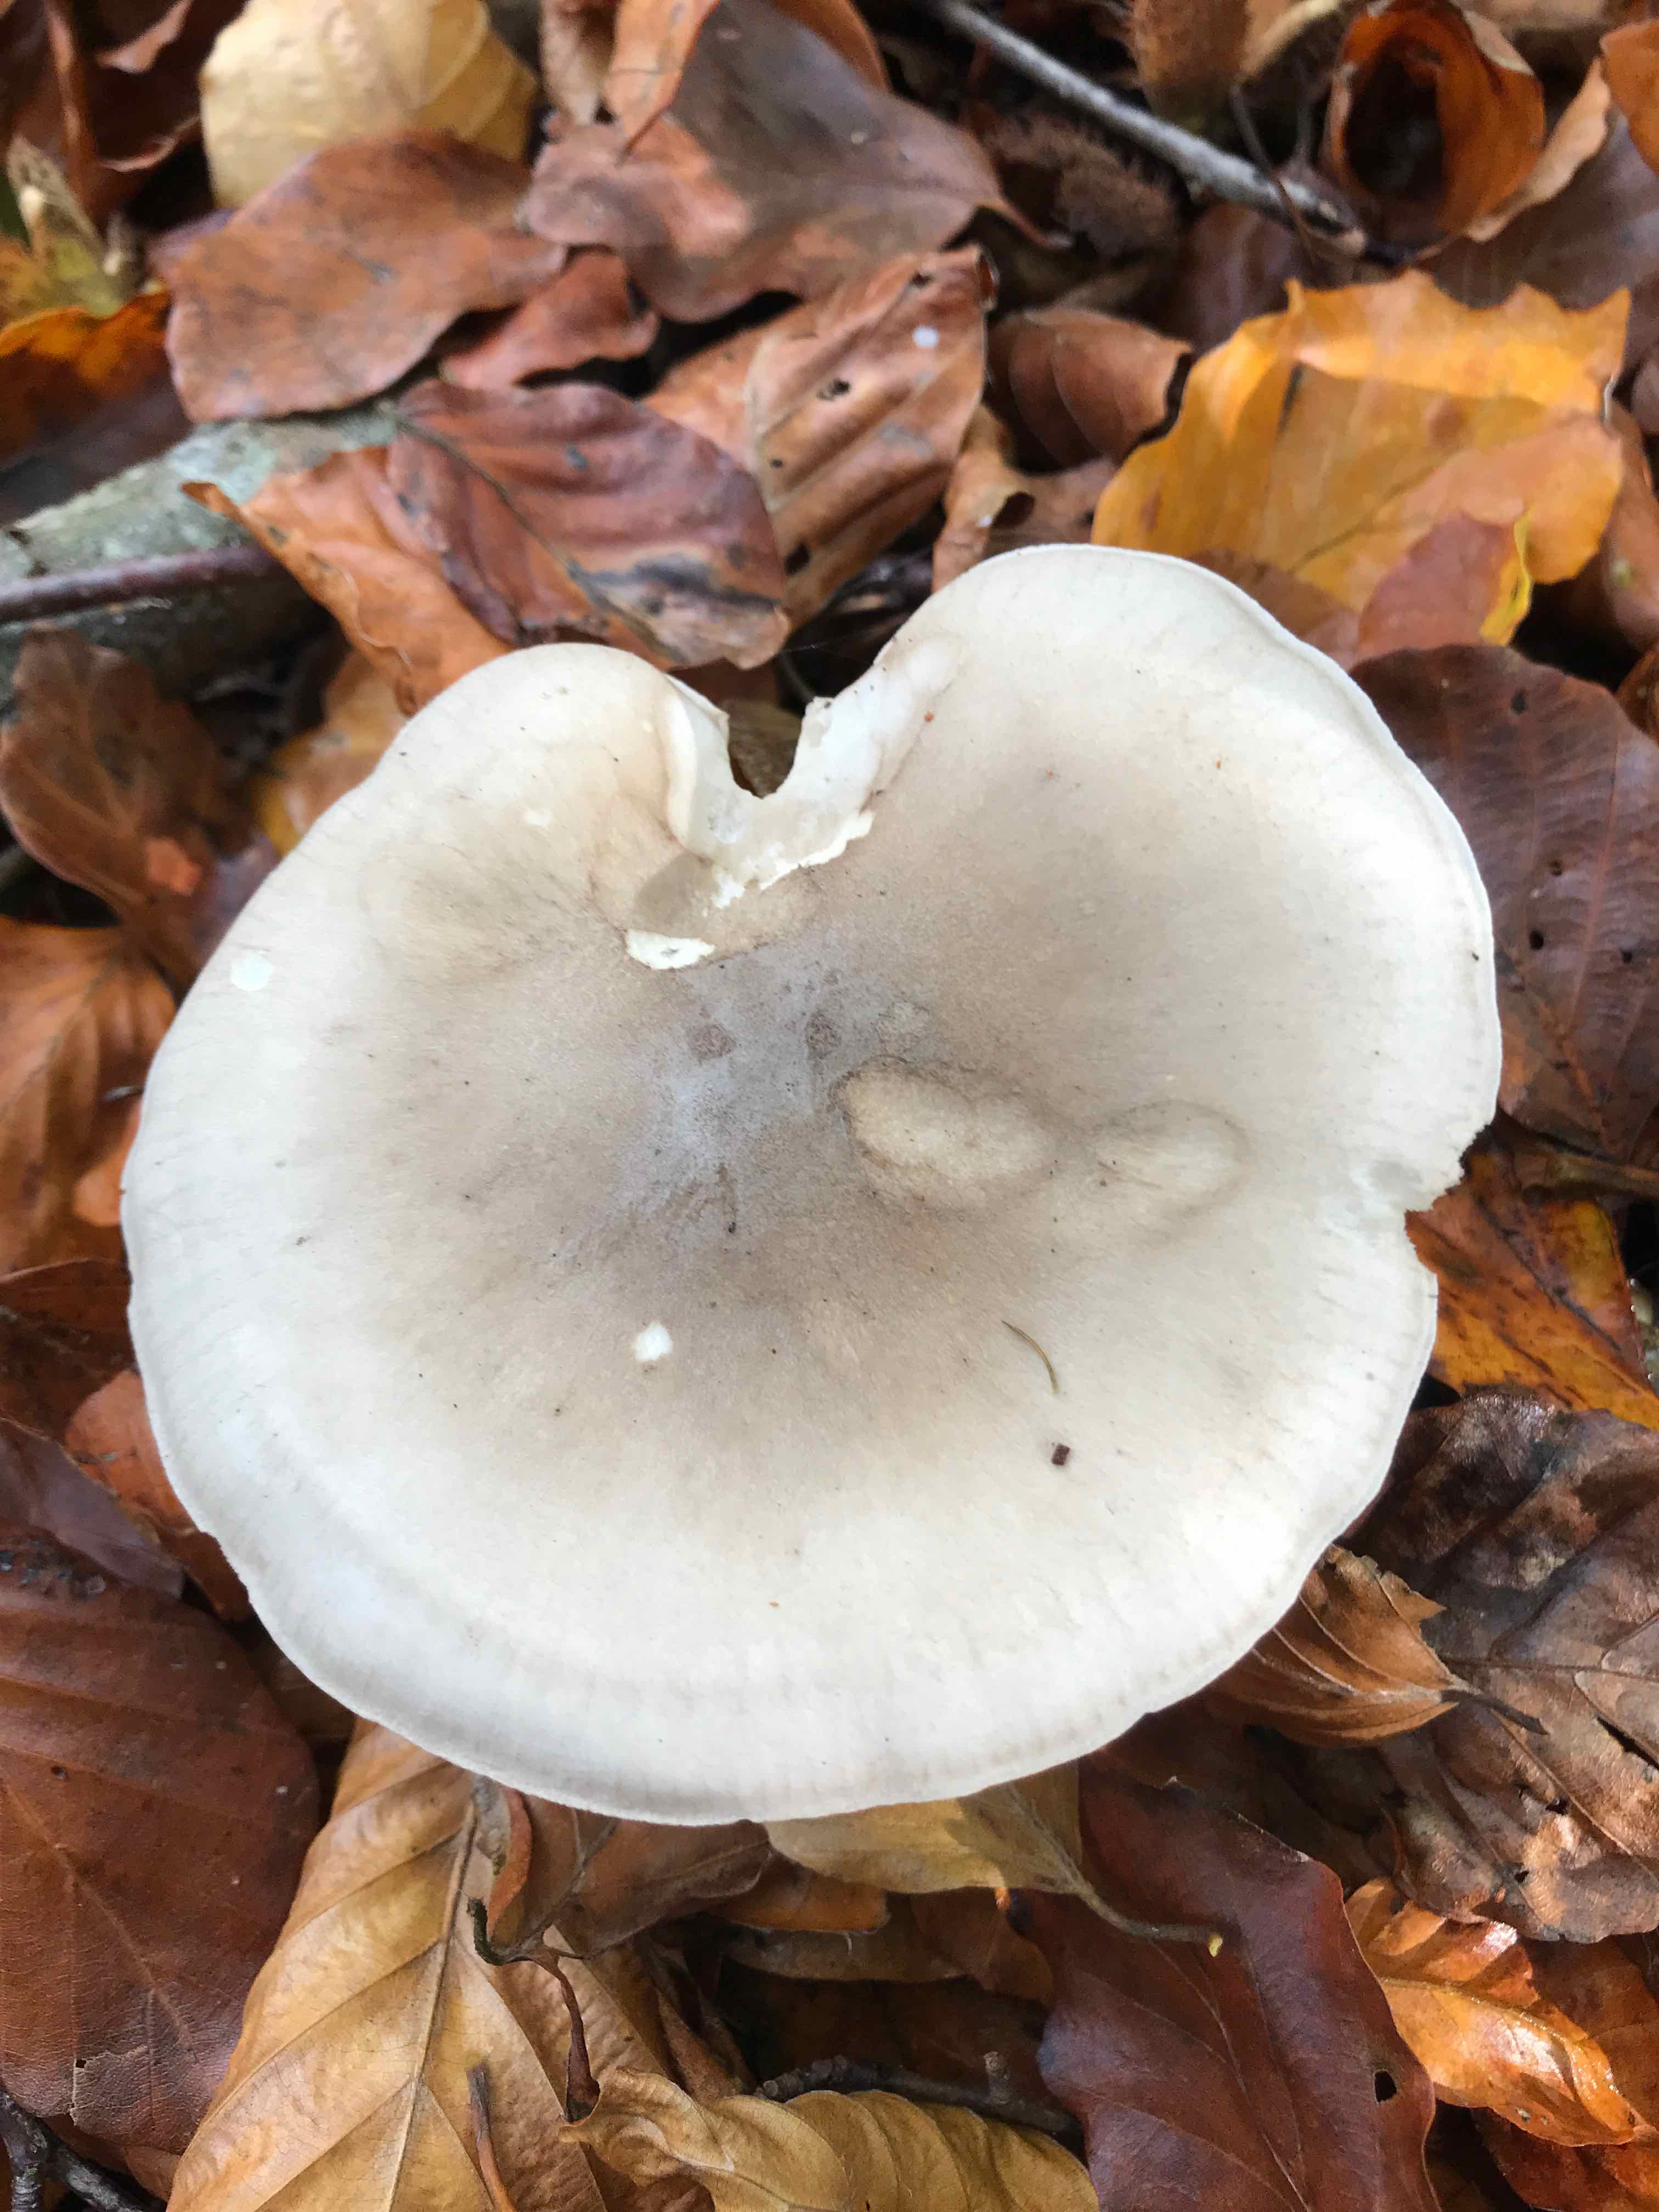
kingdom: Fungi
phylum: Basidiomycota
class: Agaricomycetes
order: Agaricales
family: Tricholomataceae
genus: Clitocybe
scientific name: Clitocybe nebularis
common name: tåge-tragthat
